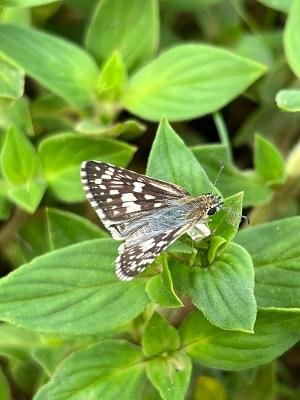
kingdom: Animalia
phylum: Arthropoda
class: Insecta
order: Lepidoptera
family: Hesperiidae
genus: Pyrgus
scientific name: Pyrgus communis
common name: White Checkered-Skipper
